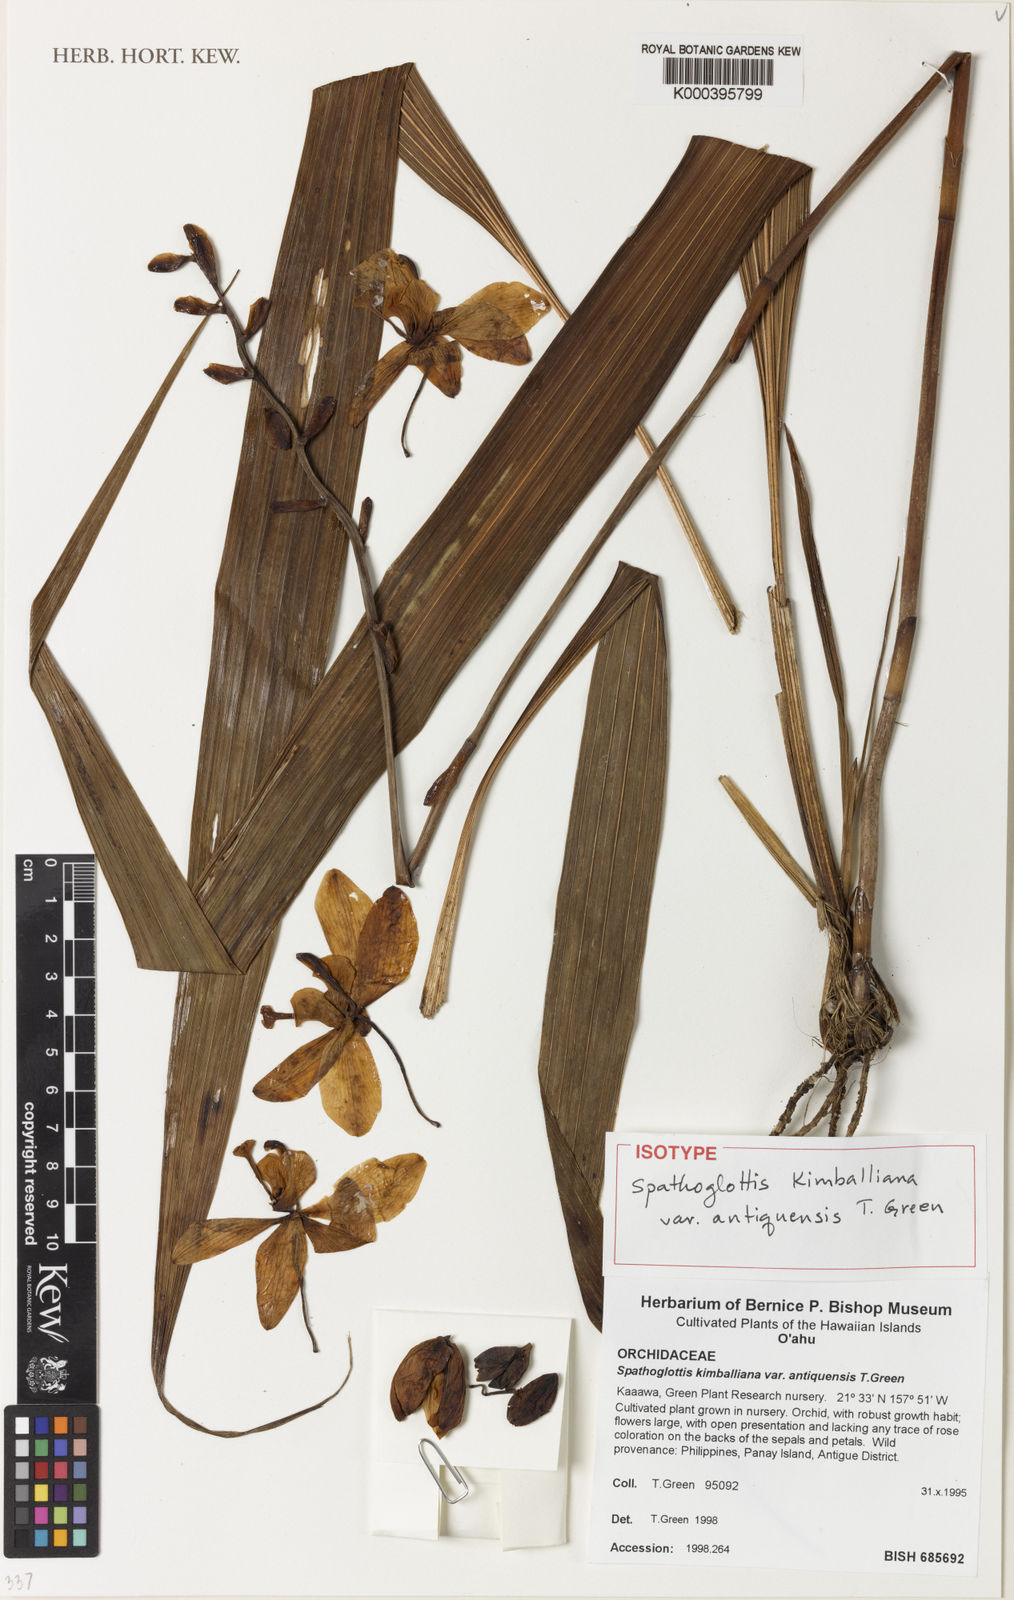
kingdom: Plantae
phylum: Tracheophyta
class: Liliopsida
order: Asparagales
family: Orchidaceae
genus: Spathoglottis
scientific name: Spathoglottis kimballiana
